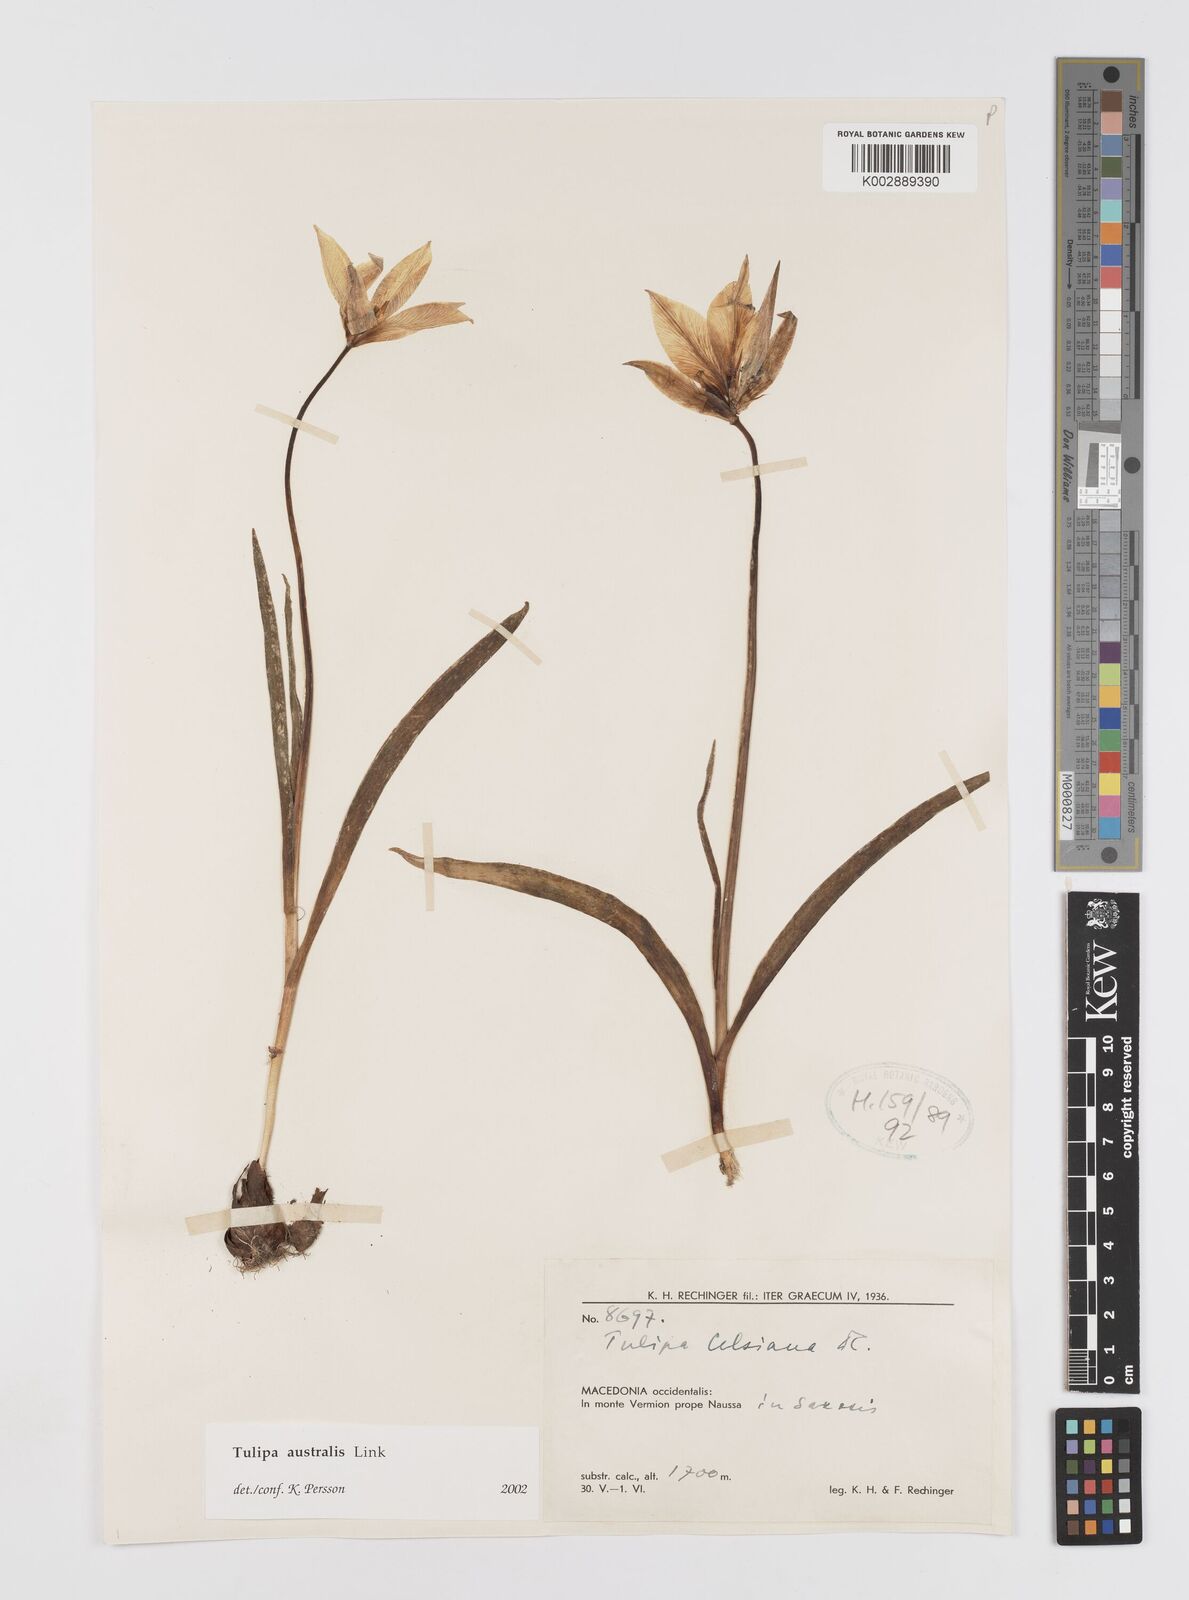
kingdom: Plantae
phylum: Tracheophyta
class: Liliopsida
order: Liliales
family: Liliaceae
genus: Tulipa
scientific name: Tulipa sylvestris
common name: Wild tulip
